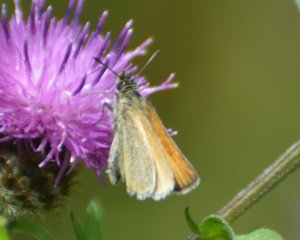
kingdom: Animalia
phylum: Arthropoda
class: Insecta
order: Lepidoptera
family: Hesperiidae
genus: Thymelicus
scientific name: Thymelicus lineola
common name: European Skipper
